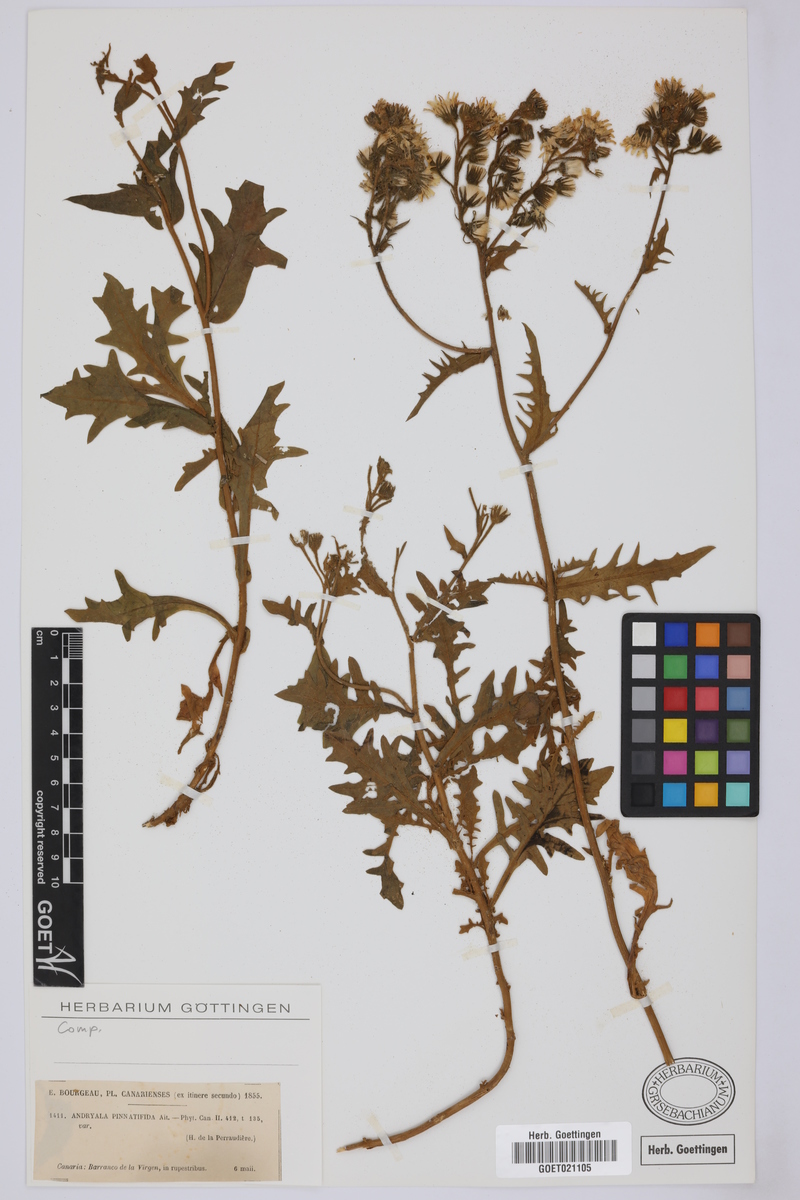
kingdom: Plantae
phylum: Tracheophyta
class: Magnoliopsida
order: Asterales
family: Asteraceae
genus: Andryala
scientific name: Andryala pinnatifida
